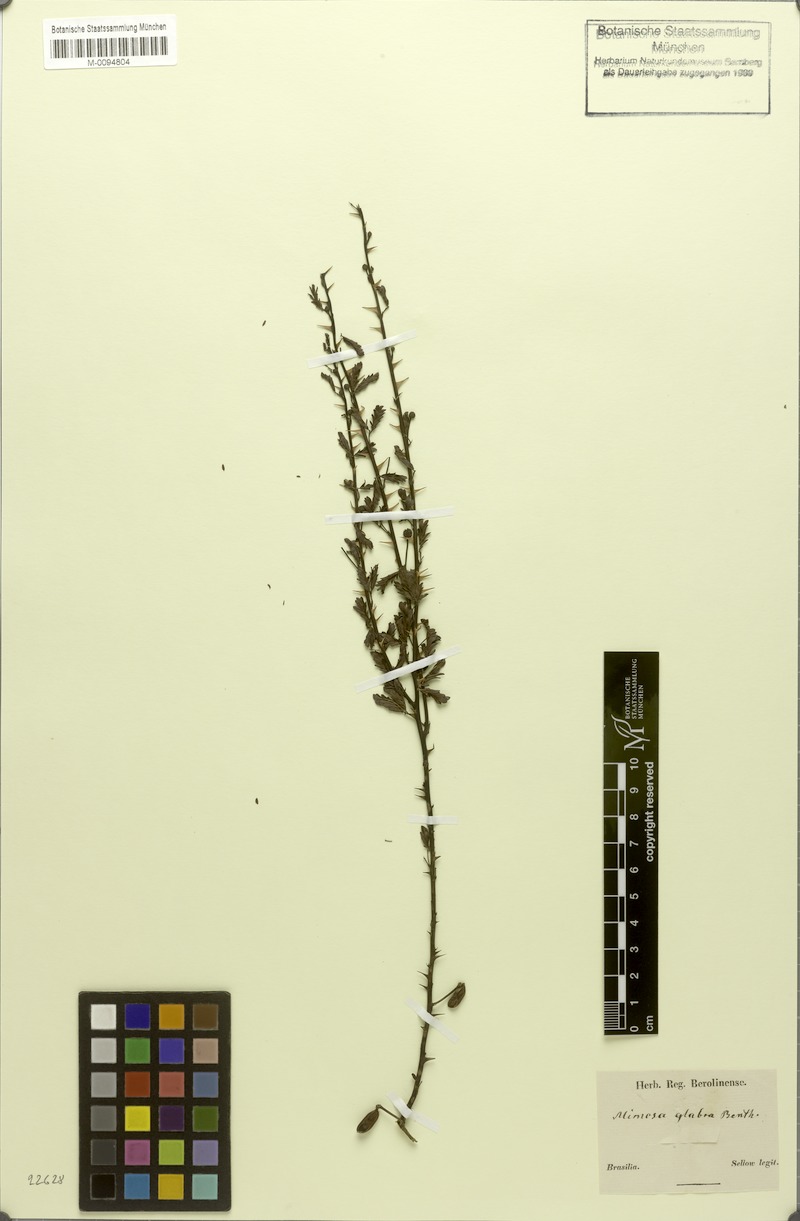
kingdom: Plantae
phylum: Tracheophyta
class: Magnoliopsida
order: Fabales
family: Fabaceae
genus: Mimosa
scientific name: Mimosa glabra
